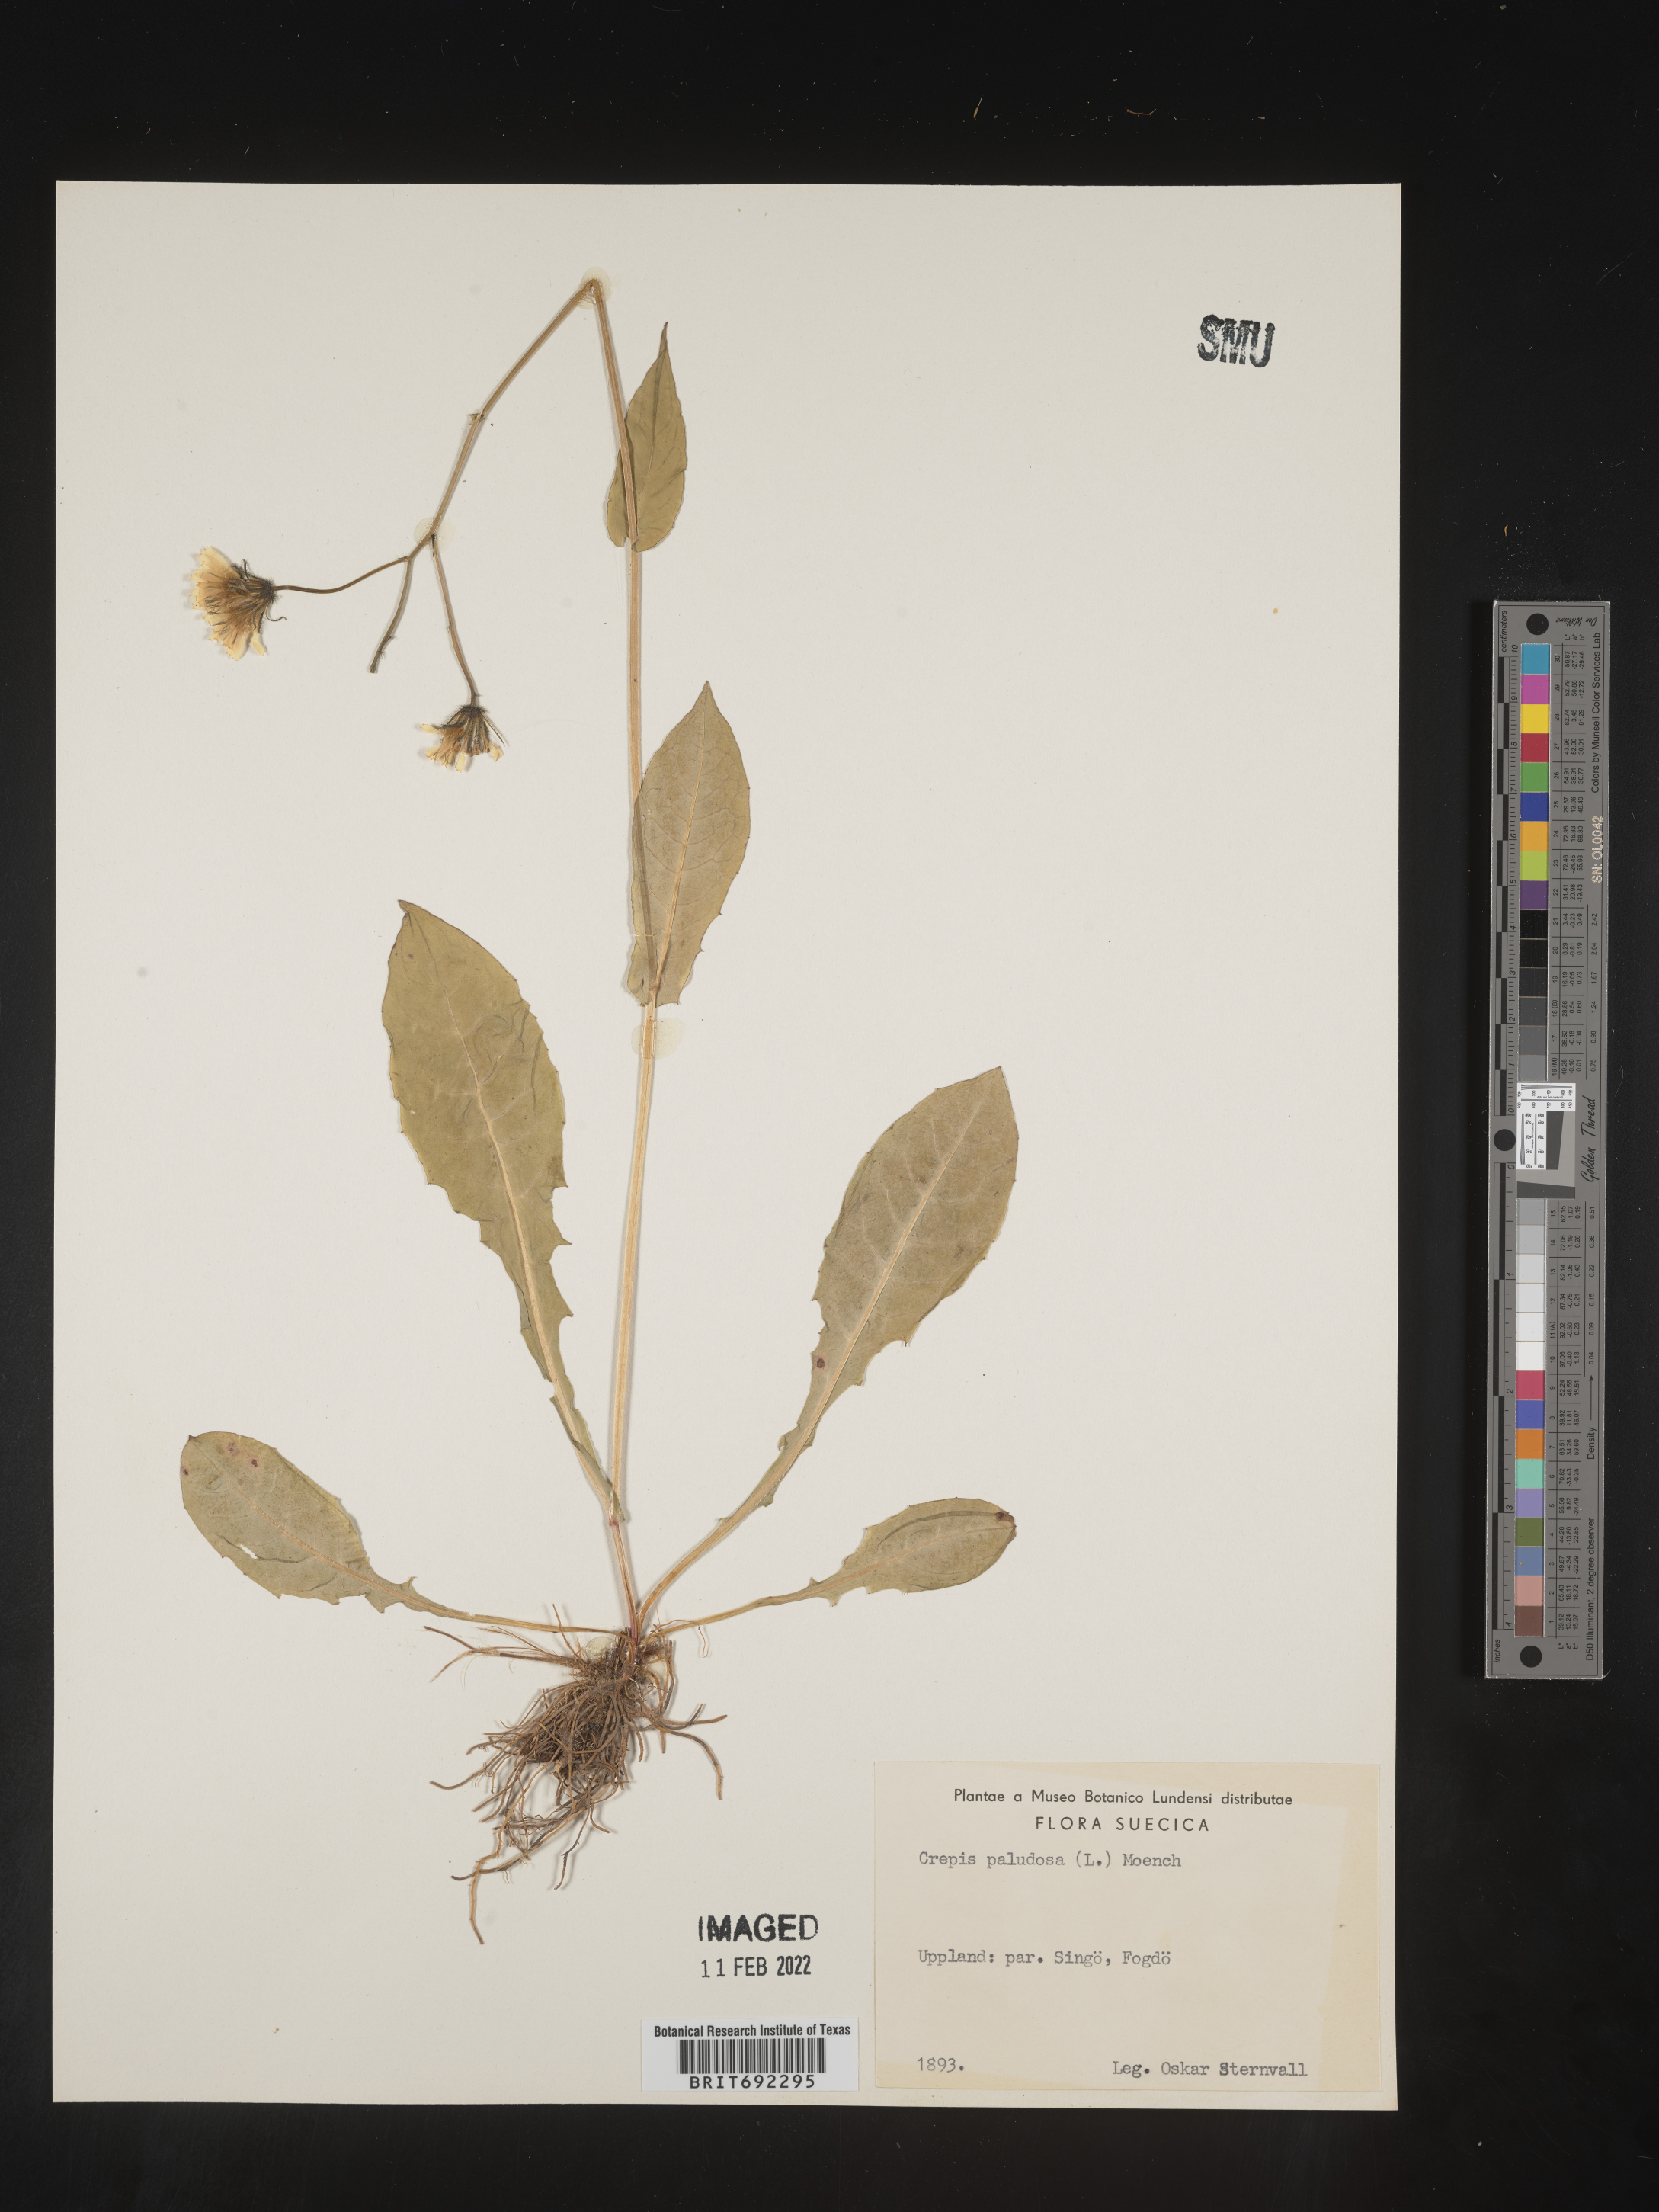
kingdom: Plantae
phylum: Tracheophyta
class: Magnoliopsida
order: Asterales
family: Asteraceae
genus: Crepis
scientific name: Crepis
